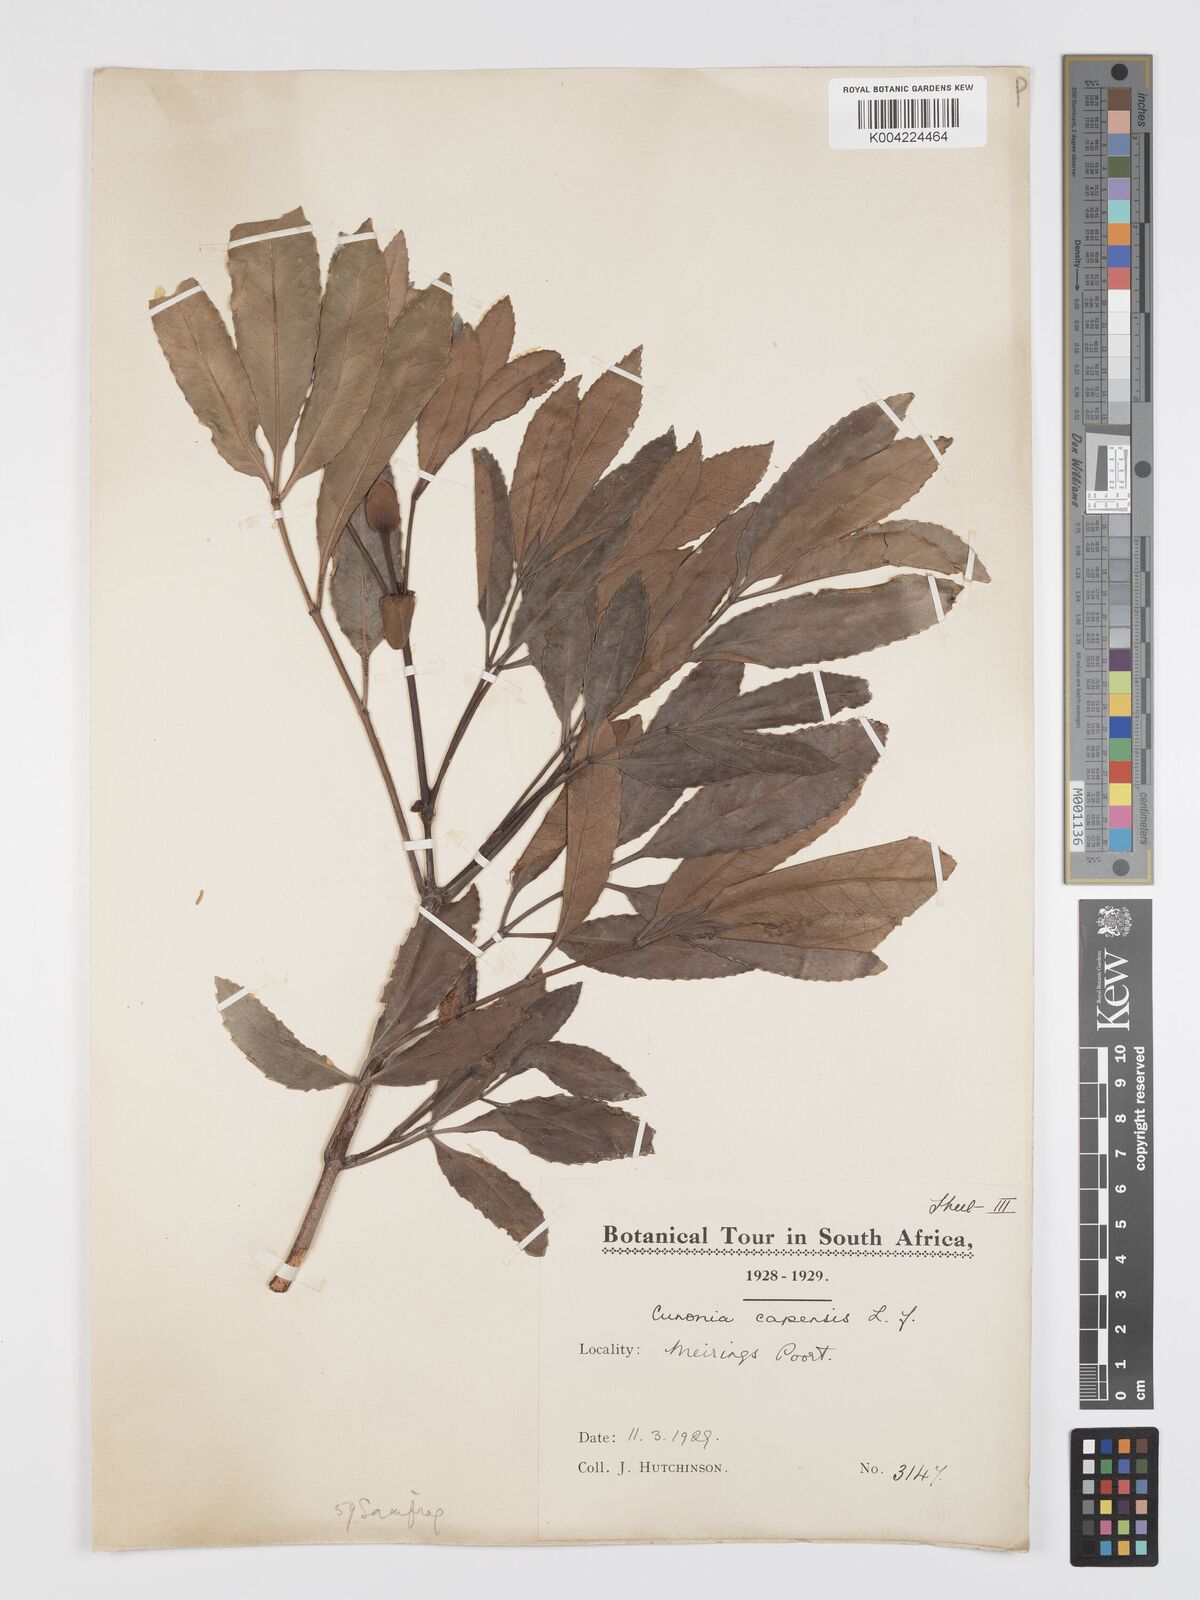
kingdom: Plantae
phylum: Tracheophyta
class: Magnoliopsida
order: Oxalidales
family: Cunoniaceae
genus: Cunonia
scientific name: Cunonia capensis
